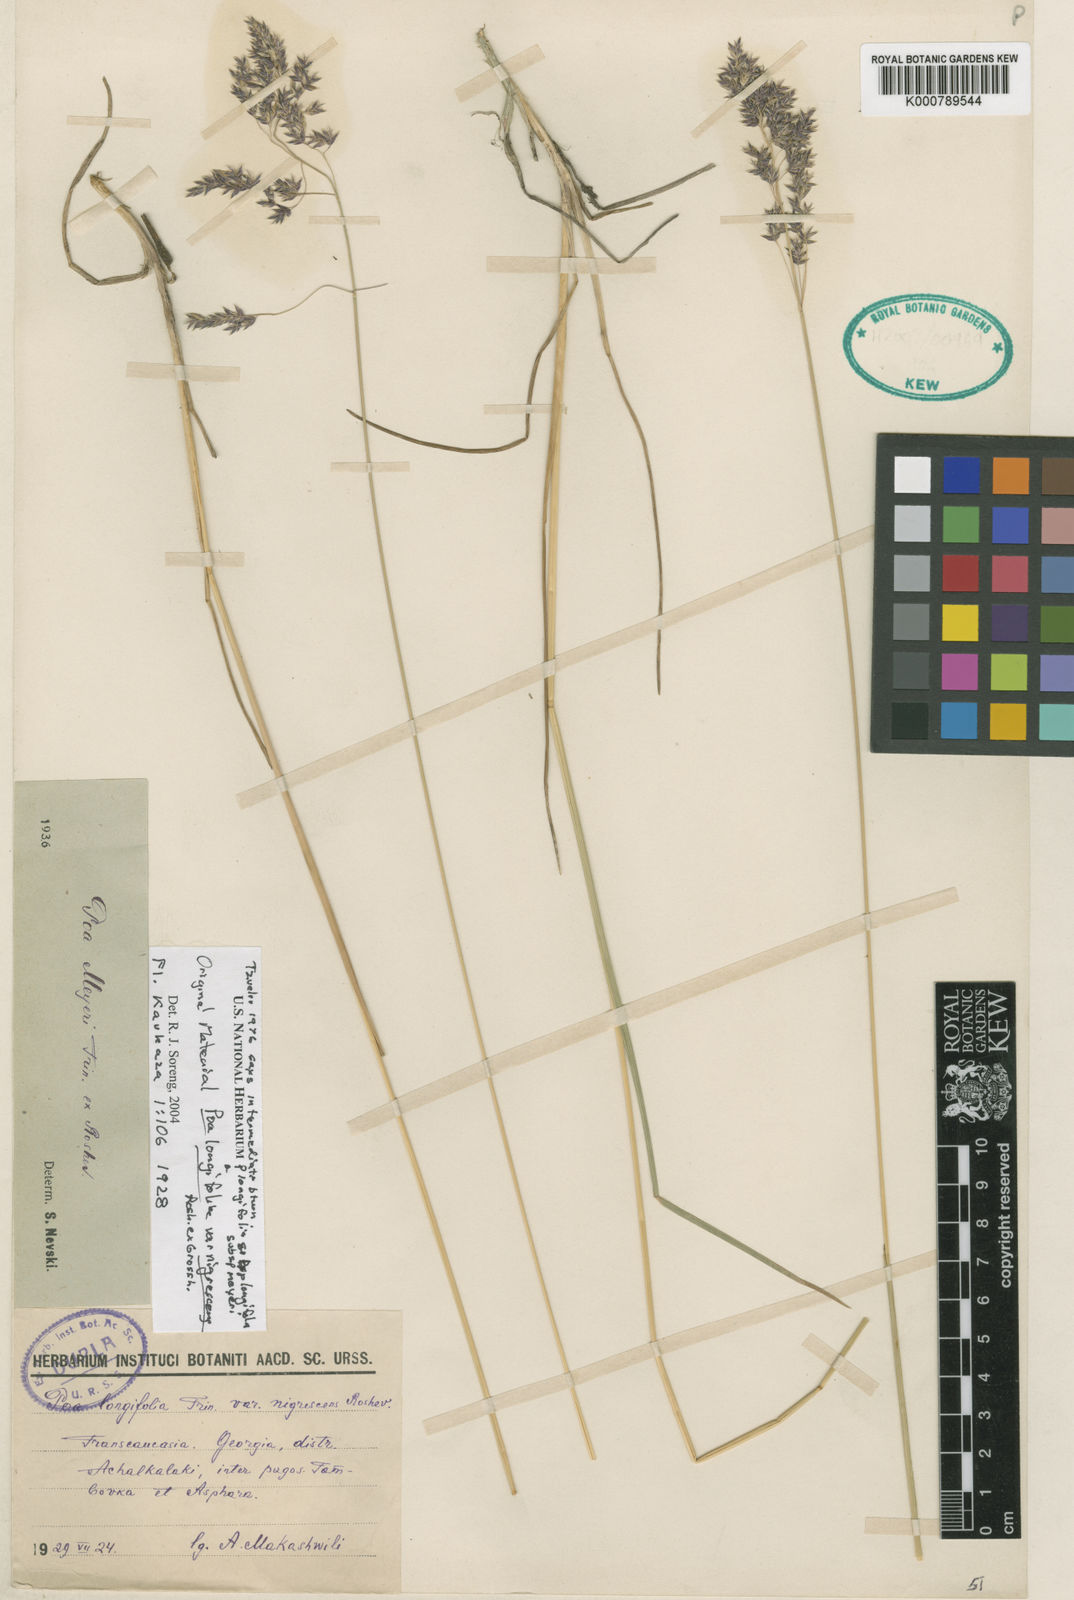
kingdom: Plantae
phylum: Tracheophyta
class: Liliopsida
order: Poales
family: Poaceae
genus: Poa
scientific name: Poa longifolia
